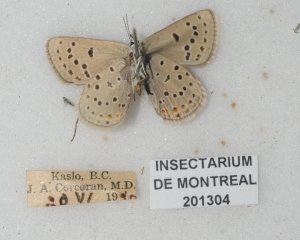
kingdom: Animalia
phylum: Arthropoda
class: Insecta
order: Lepidoptera
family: Lycaenidae
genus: Lycaeides
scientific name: Lycaeides melissa
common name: Melissa Blue
